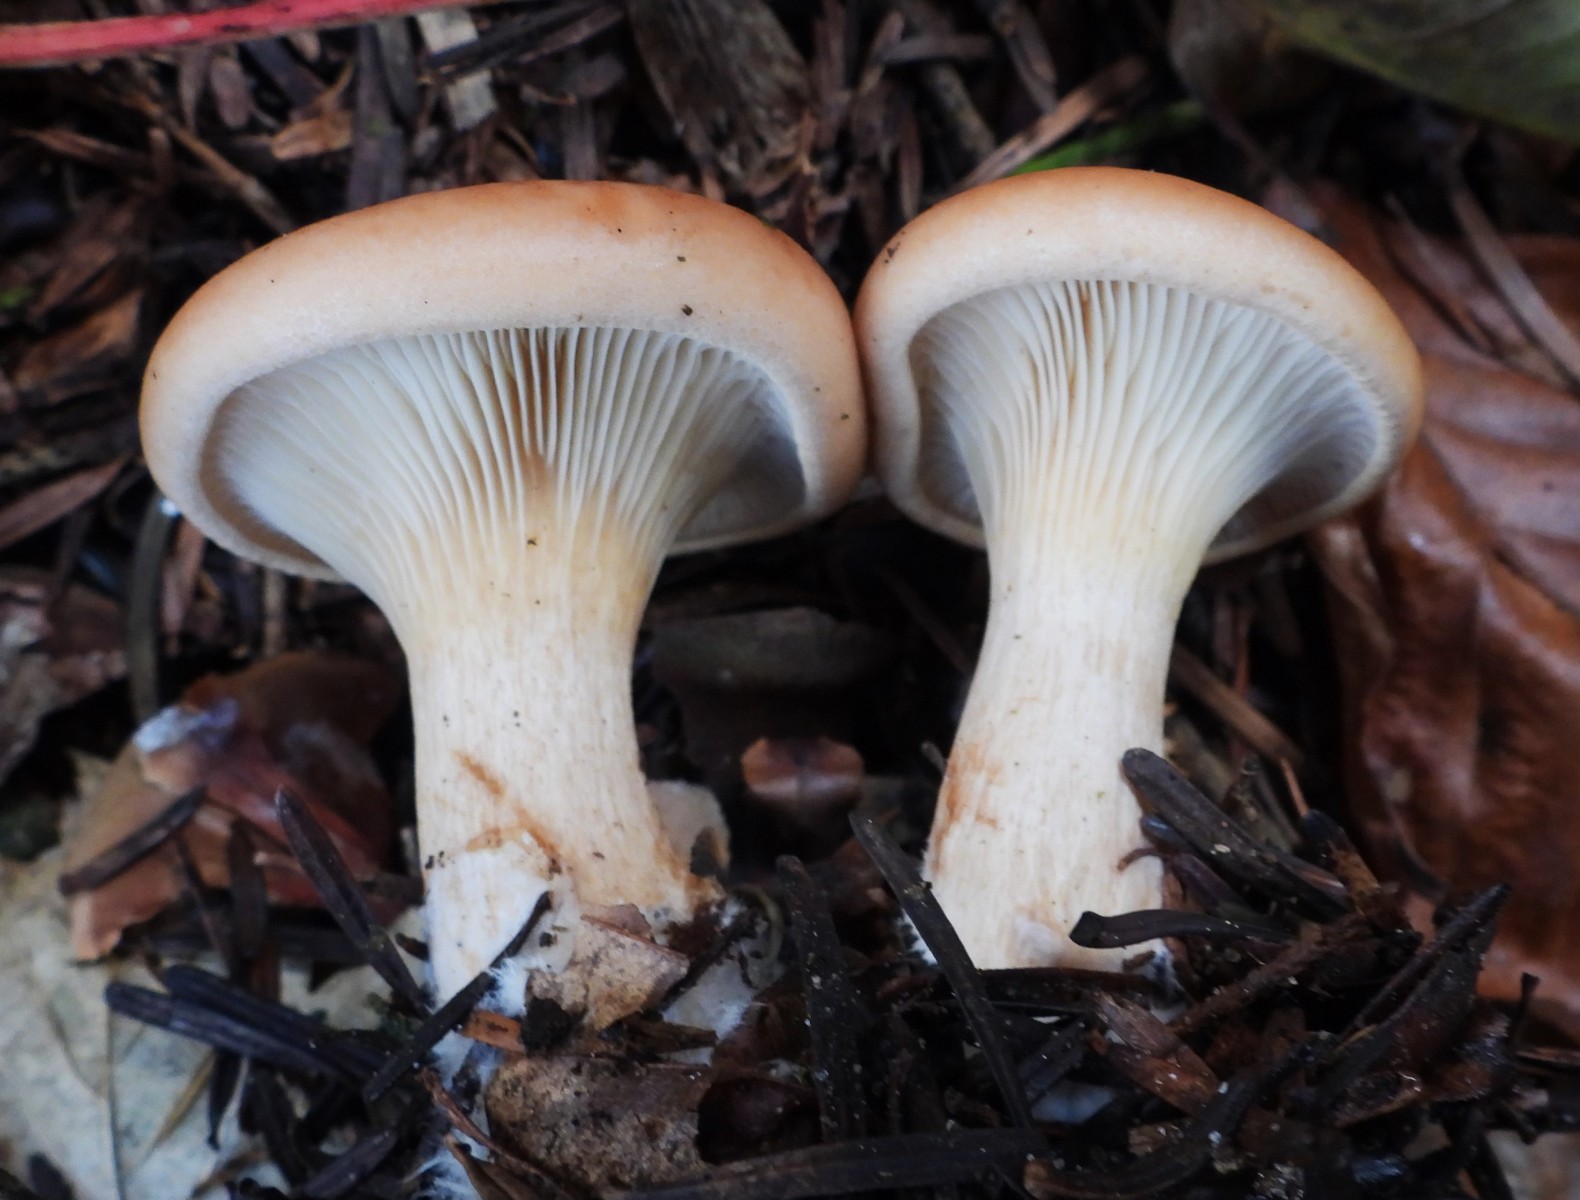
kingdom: Fungi
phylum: Basidiomycota
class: Agaricomycetes
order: Agaricales
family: Tricholomataceae
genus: Paralepista
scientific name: Paralepista gilva
